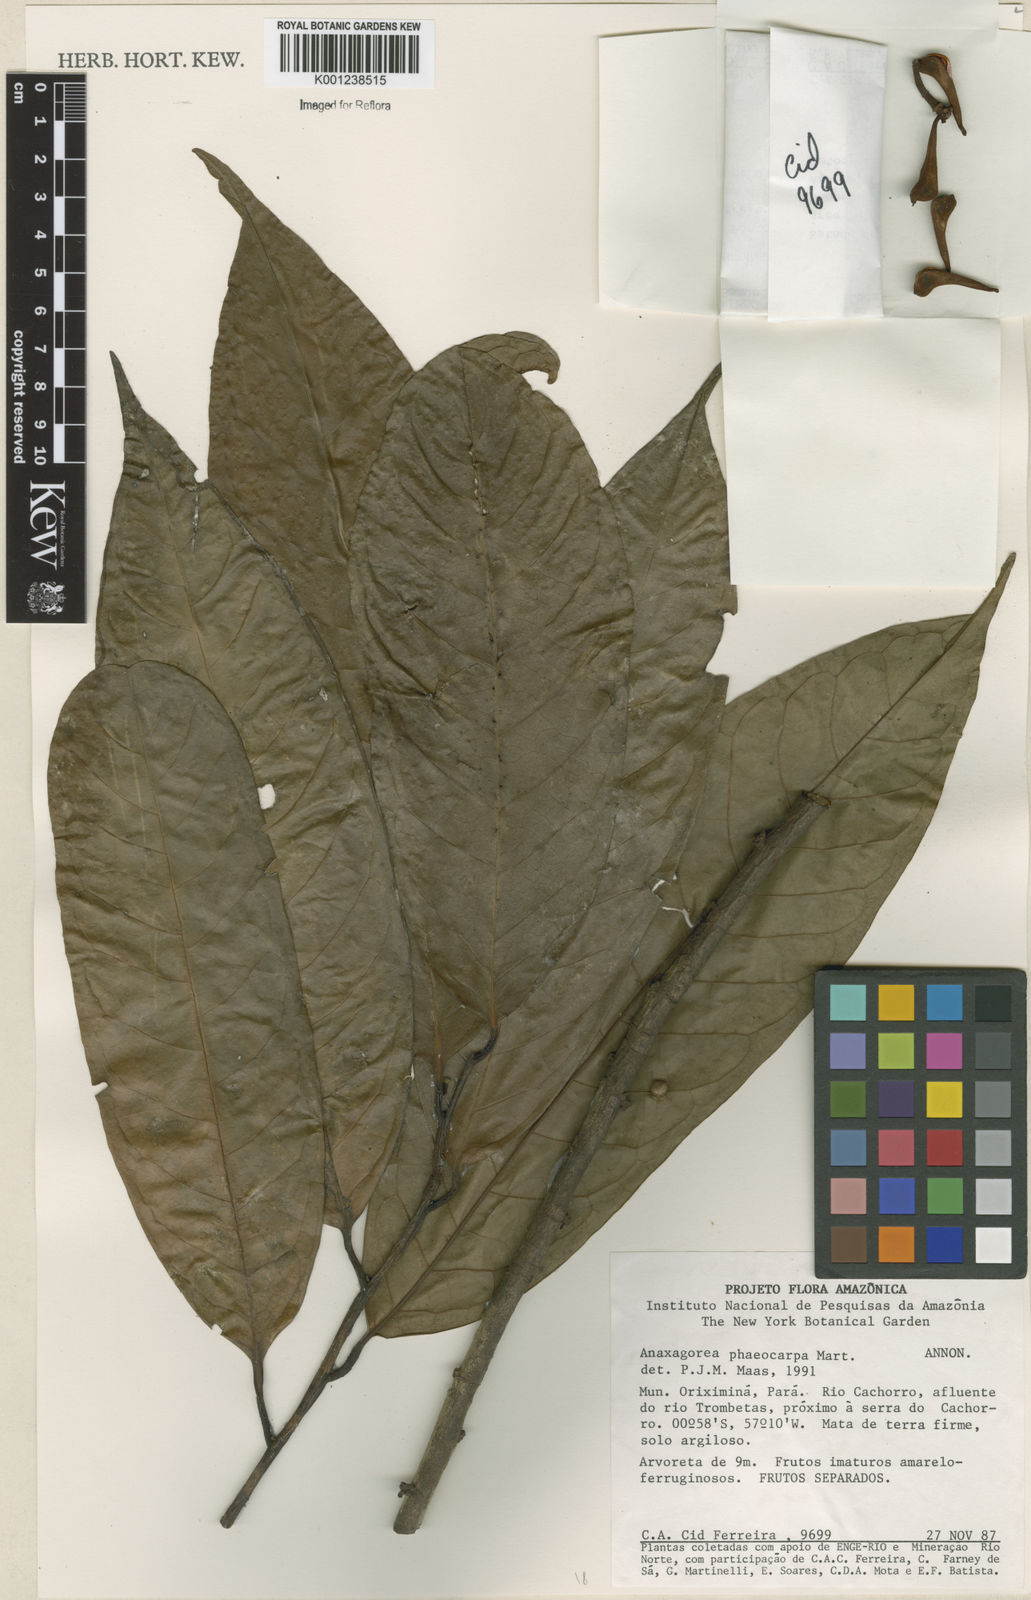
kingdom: Plantae
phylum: Tracheophyta
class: Magnoliopsida
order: Magnoliales
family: Annonaceae
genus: Anaxagorea
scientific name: Anaxagorea phaeocarpa
